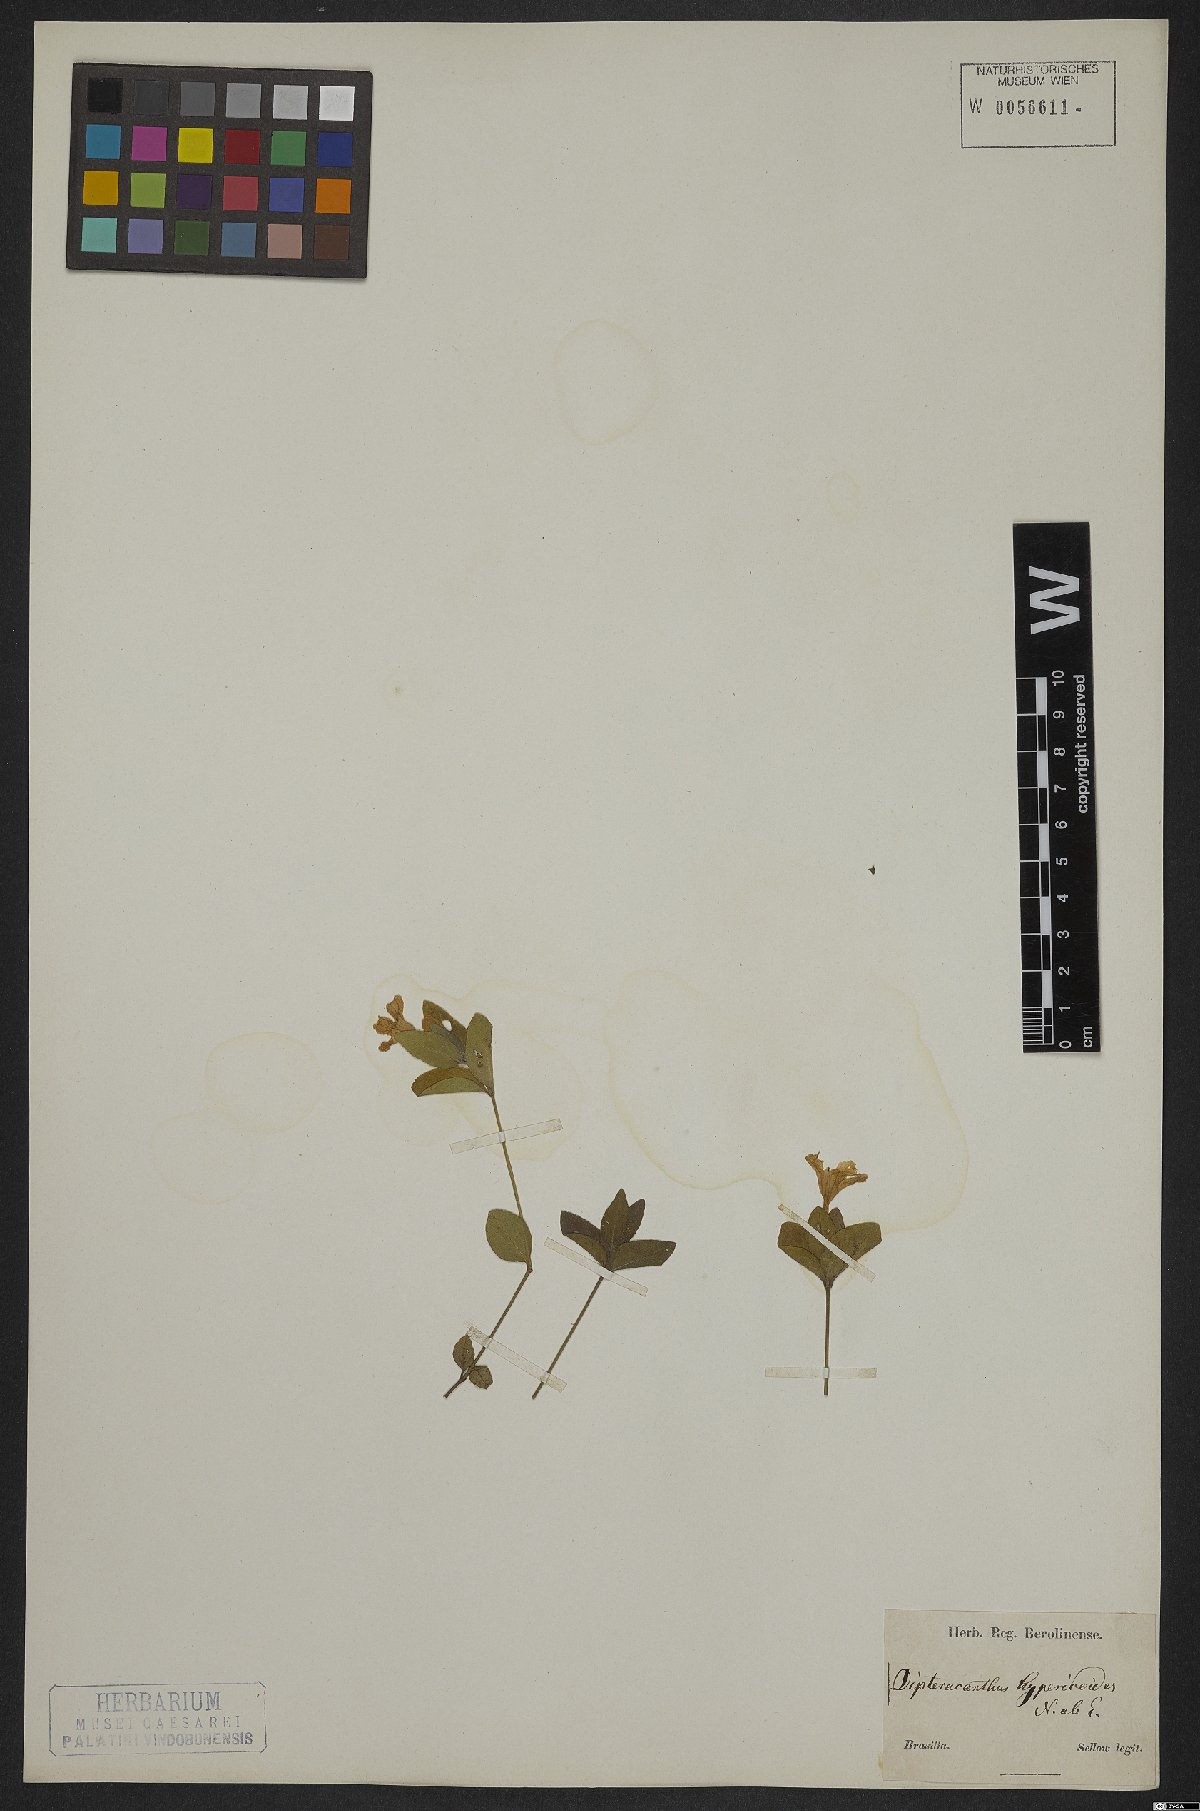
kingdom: Plantae
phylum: Tracheophyta
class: Magnoliopsida
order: Lamiales
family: Acanthaceae
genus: Ruellia
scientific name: Ruellia hypericoides
